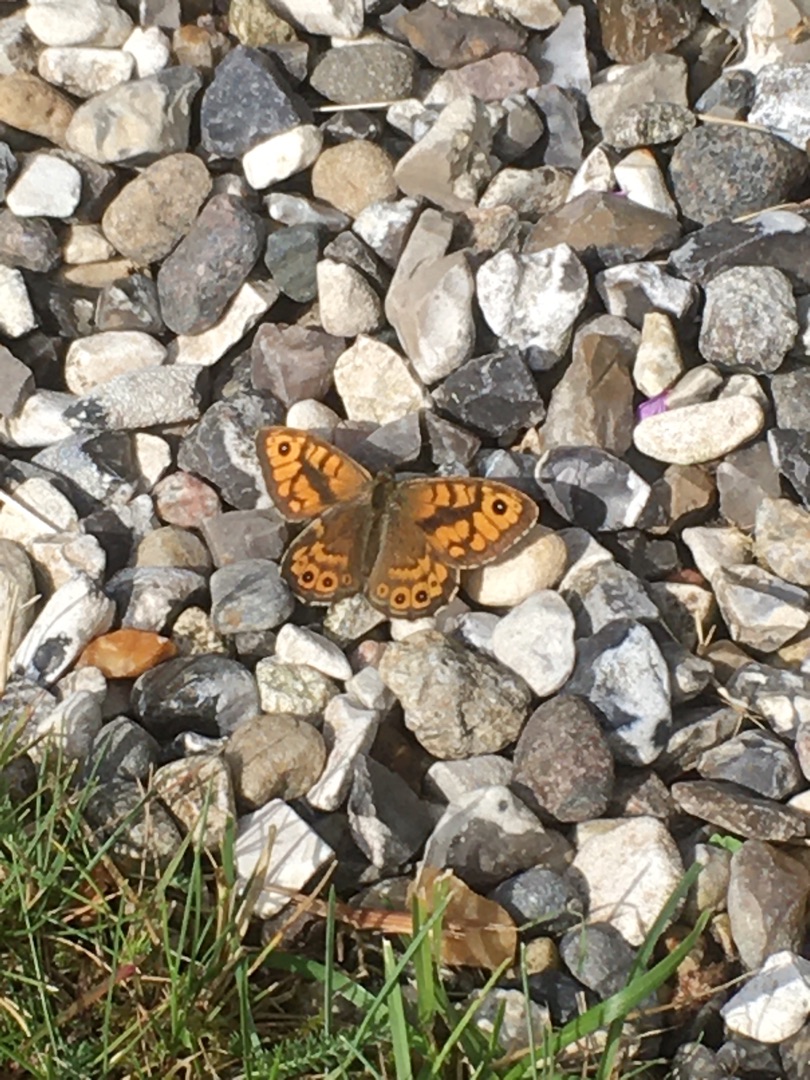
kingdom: Animalia
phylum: Arthropoda
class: Insecta
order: Lepidoptera
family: Nymphalidae
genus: Pararge
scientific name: Pararge Lasiommata megera
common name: Vejrandøje
